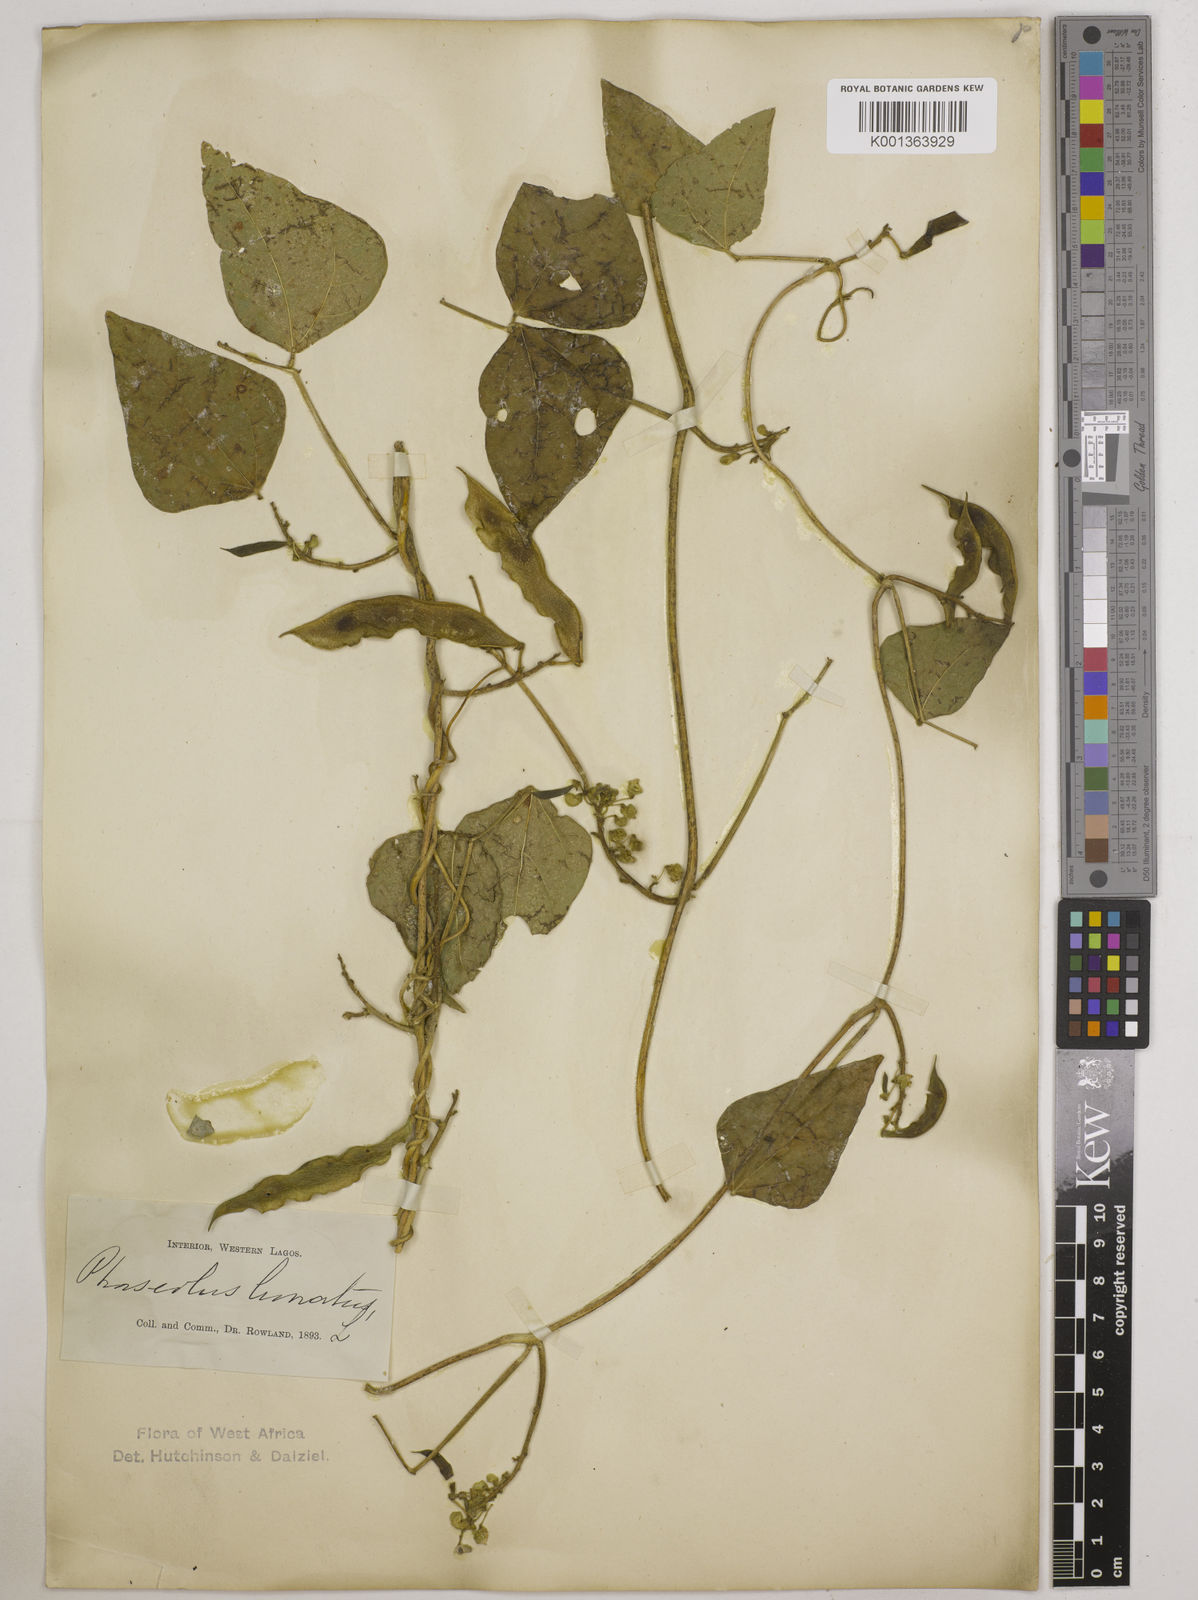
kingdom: Plantae
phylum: Tracheophyta
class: Magnoliopsida
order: Fabales
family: Fabaceae
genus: Phaseolus
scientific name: Phaseolus lunatus
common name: Sieva bean
